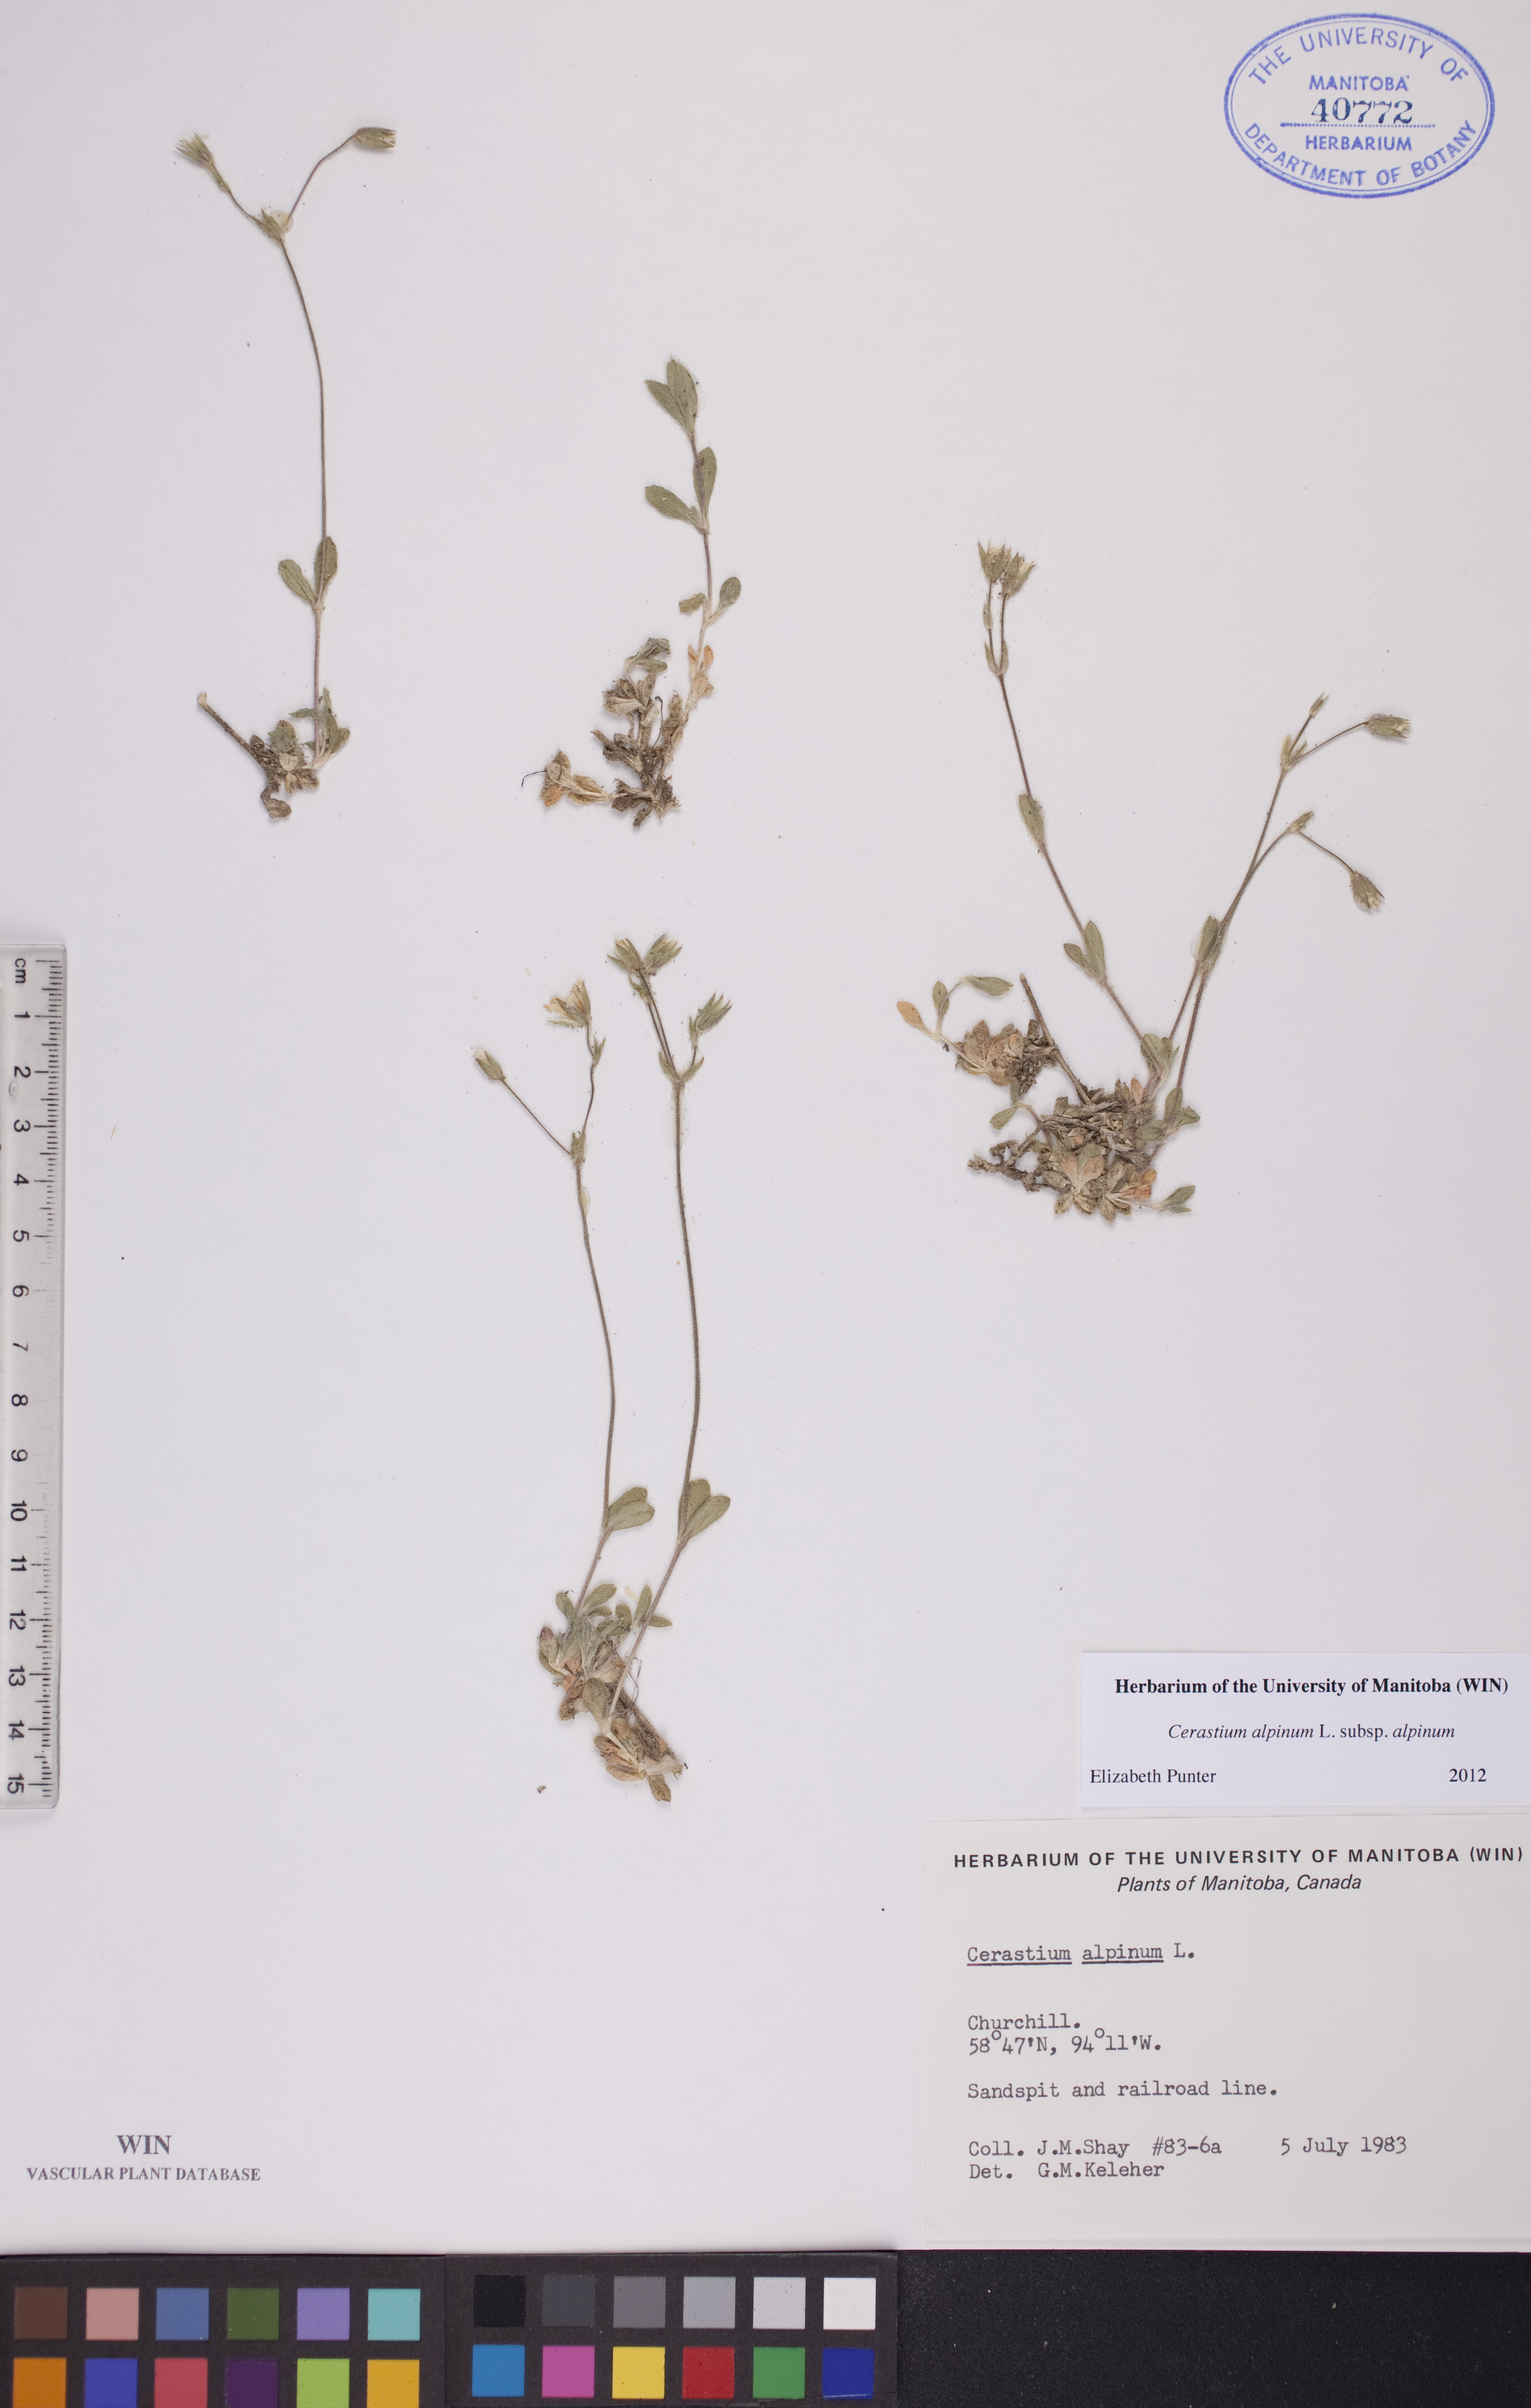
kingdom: Plantae
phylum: Tracheophyta
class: Magnoliopsida
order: Caryophyllales
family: Caryophyllaceae
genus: Cerastium
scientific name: Cerastium alpinum
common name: Alpine mouse-ear
